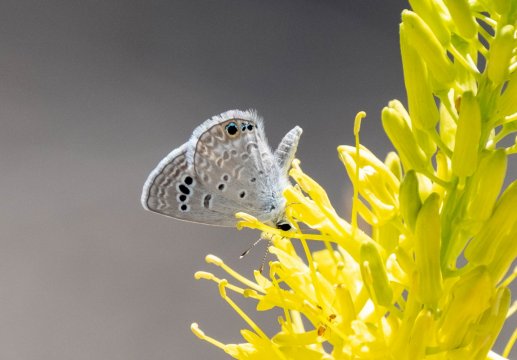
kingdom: Animalia
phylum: Arthropoda
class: Insecta
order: Lepidoptera
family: Lycaenidae
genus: Echinargus
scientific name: Echinargus isola
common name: Reakirt's Blue
